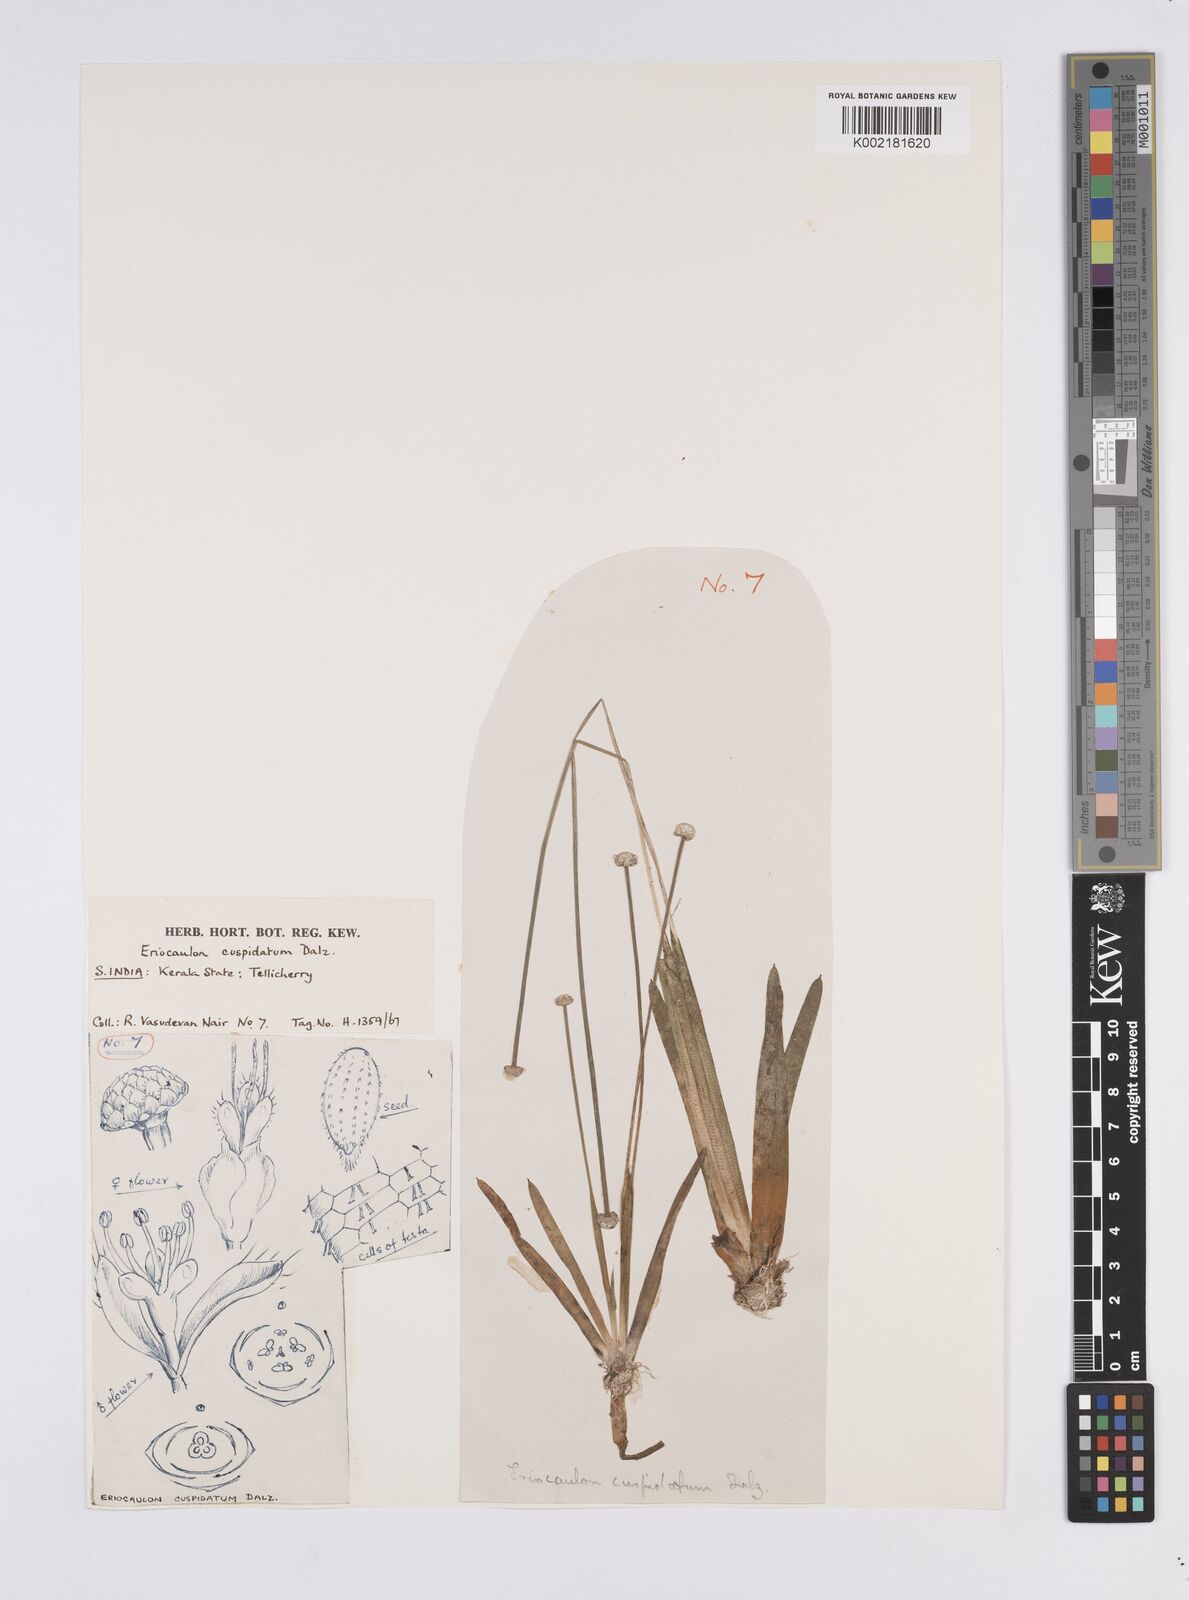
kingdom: Plantae
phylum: Tracheophyta
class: Liliopsida
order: Poales
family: Eriocaulaceae
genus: Eriocaulon
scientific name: Eriocaulon cuspidatum
